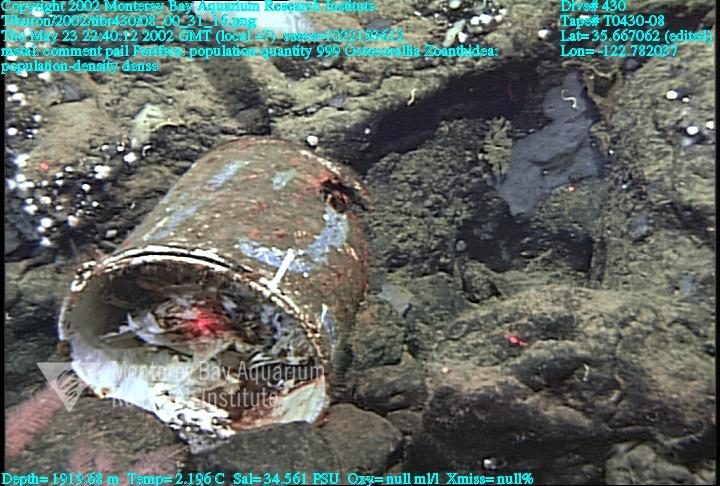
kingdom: Animalia
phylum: Porifera
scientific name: Porifera
